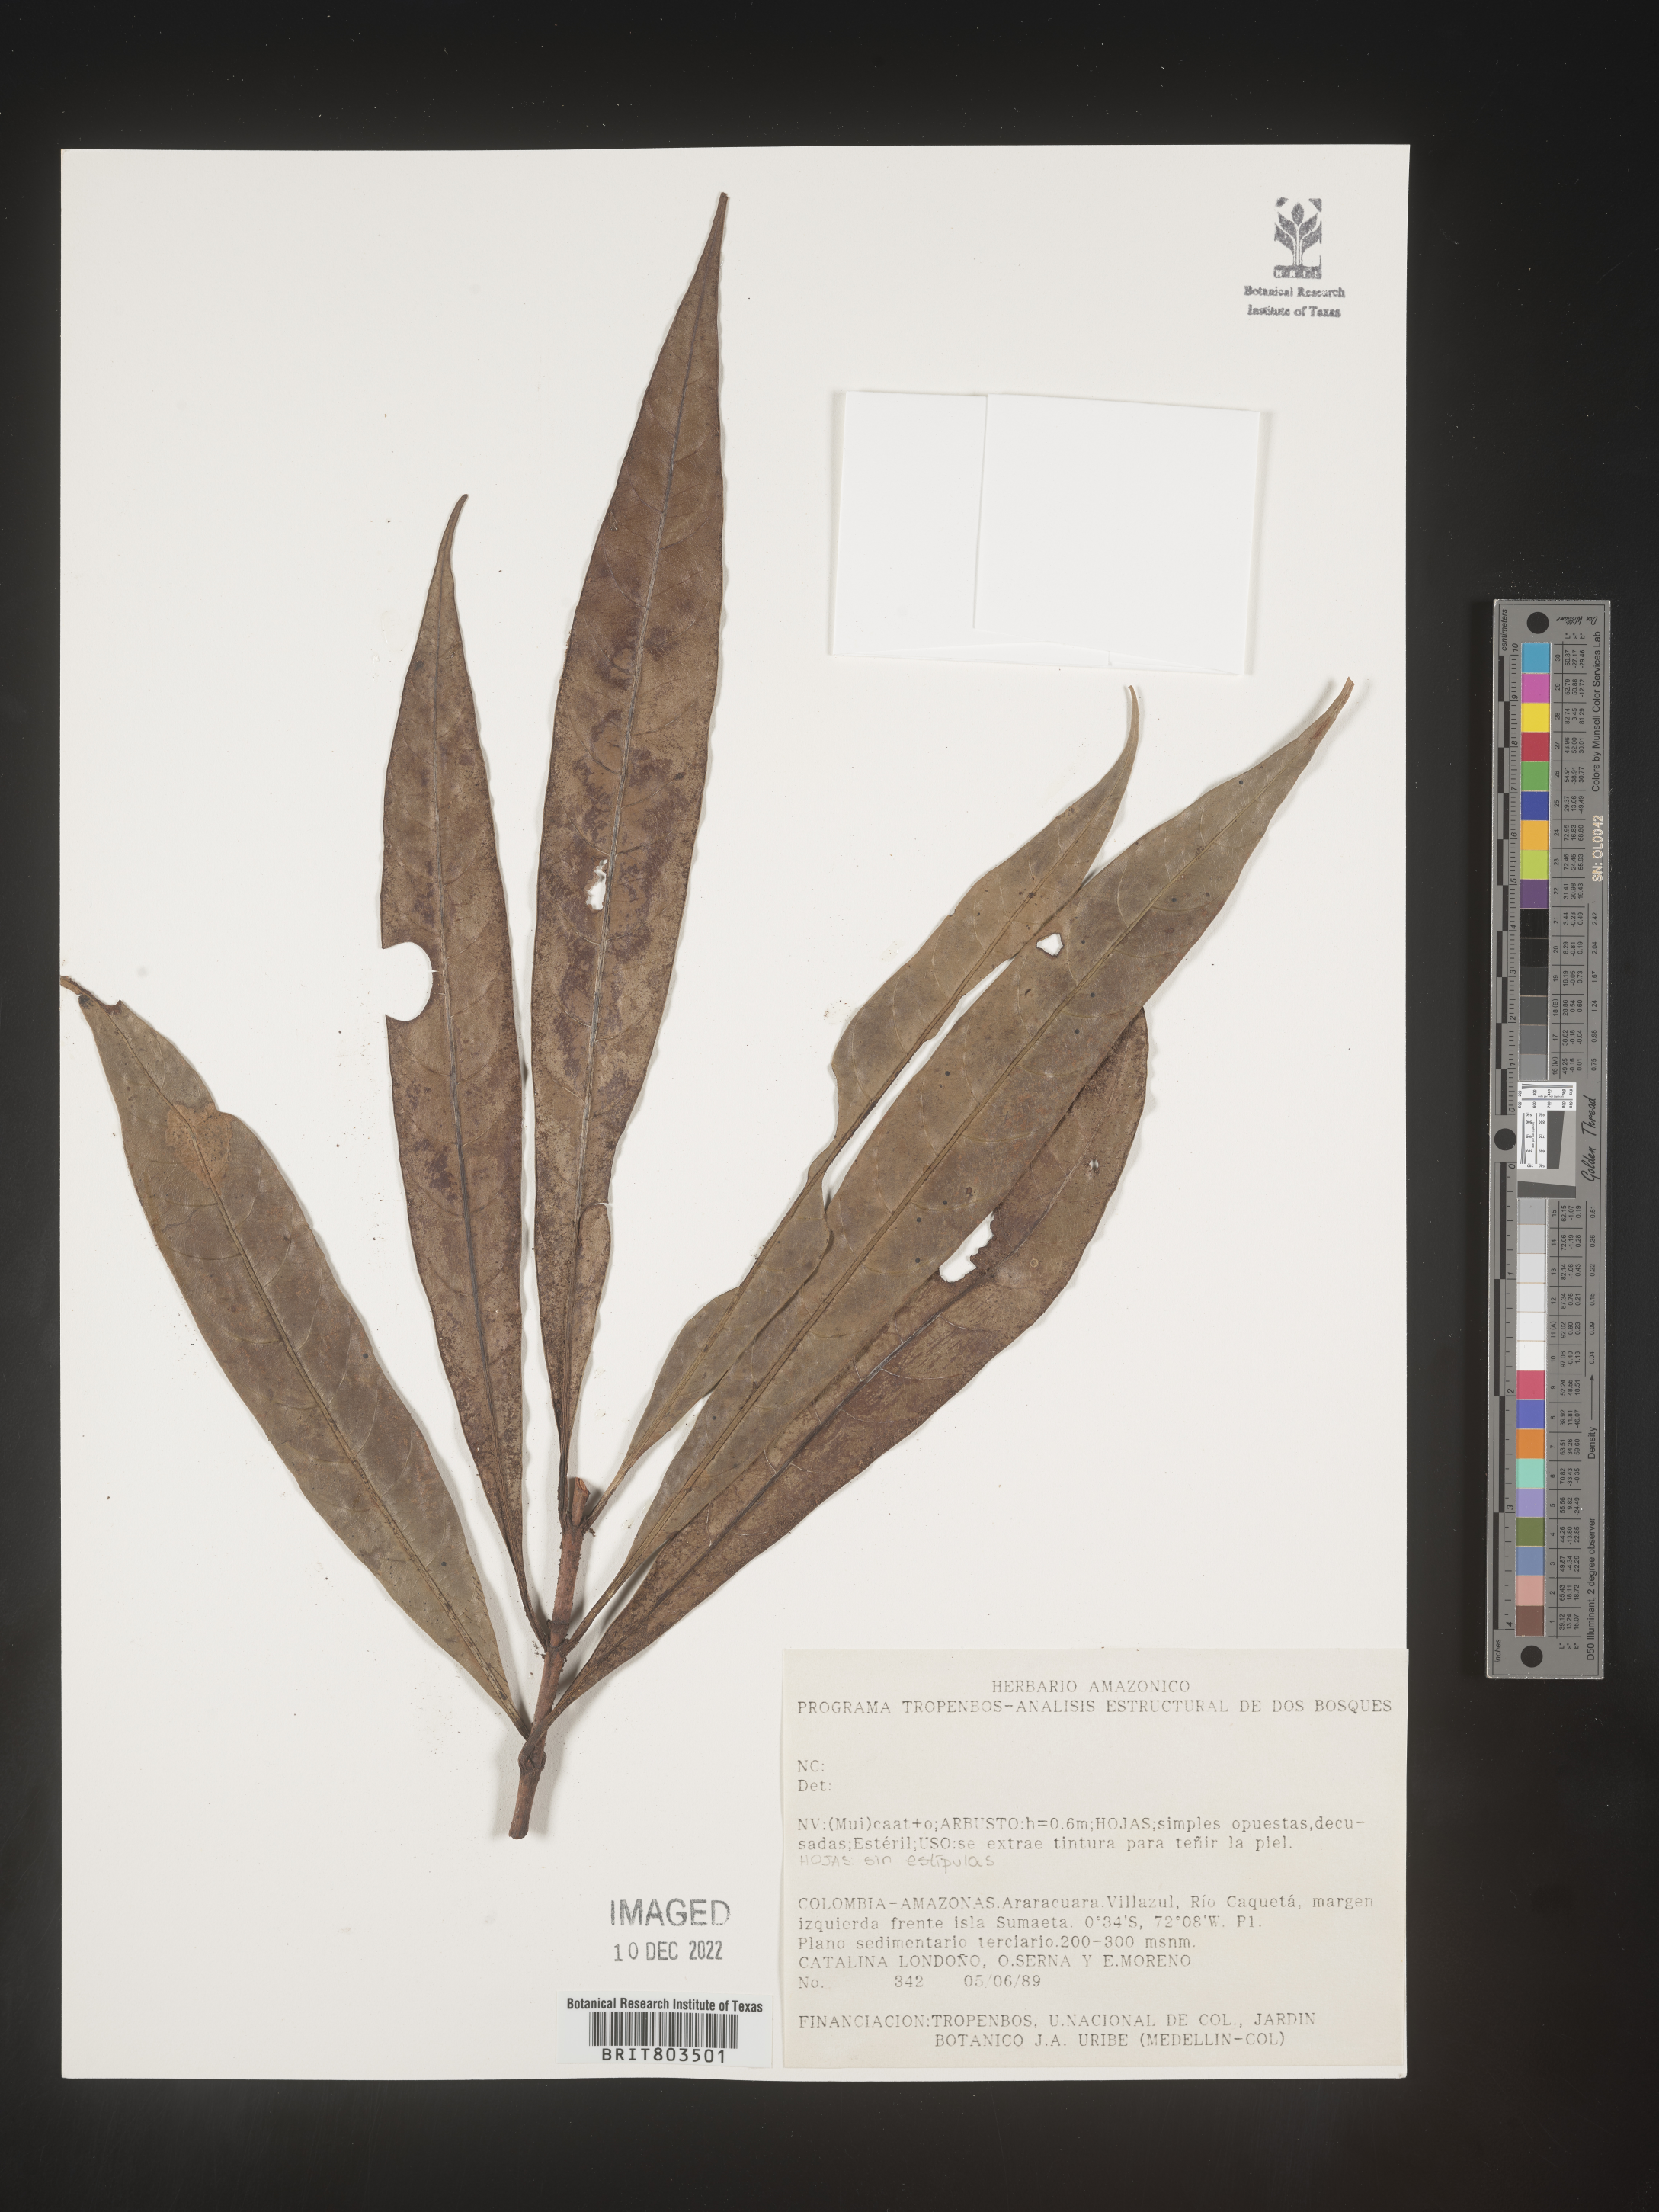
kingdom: Plantae
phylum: Tracheophyta
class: Magnoliopsida
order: Malpighiales
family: Clusiaceae
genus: Tovomita
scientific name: Tovomita
